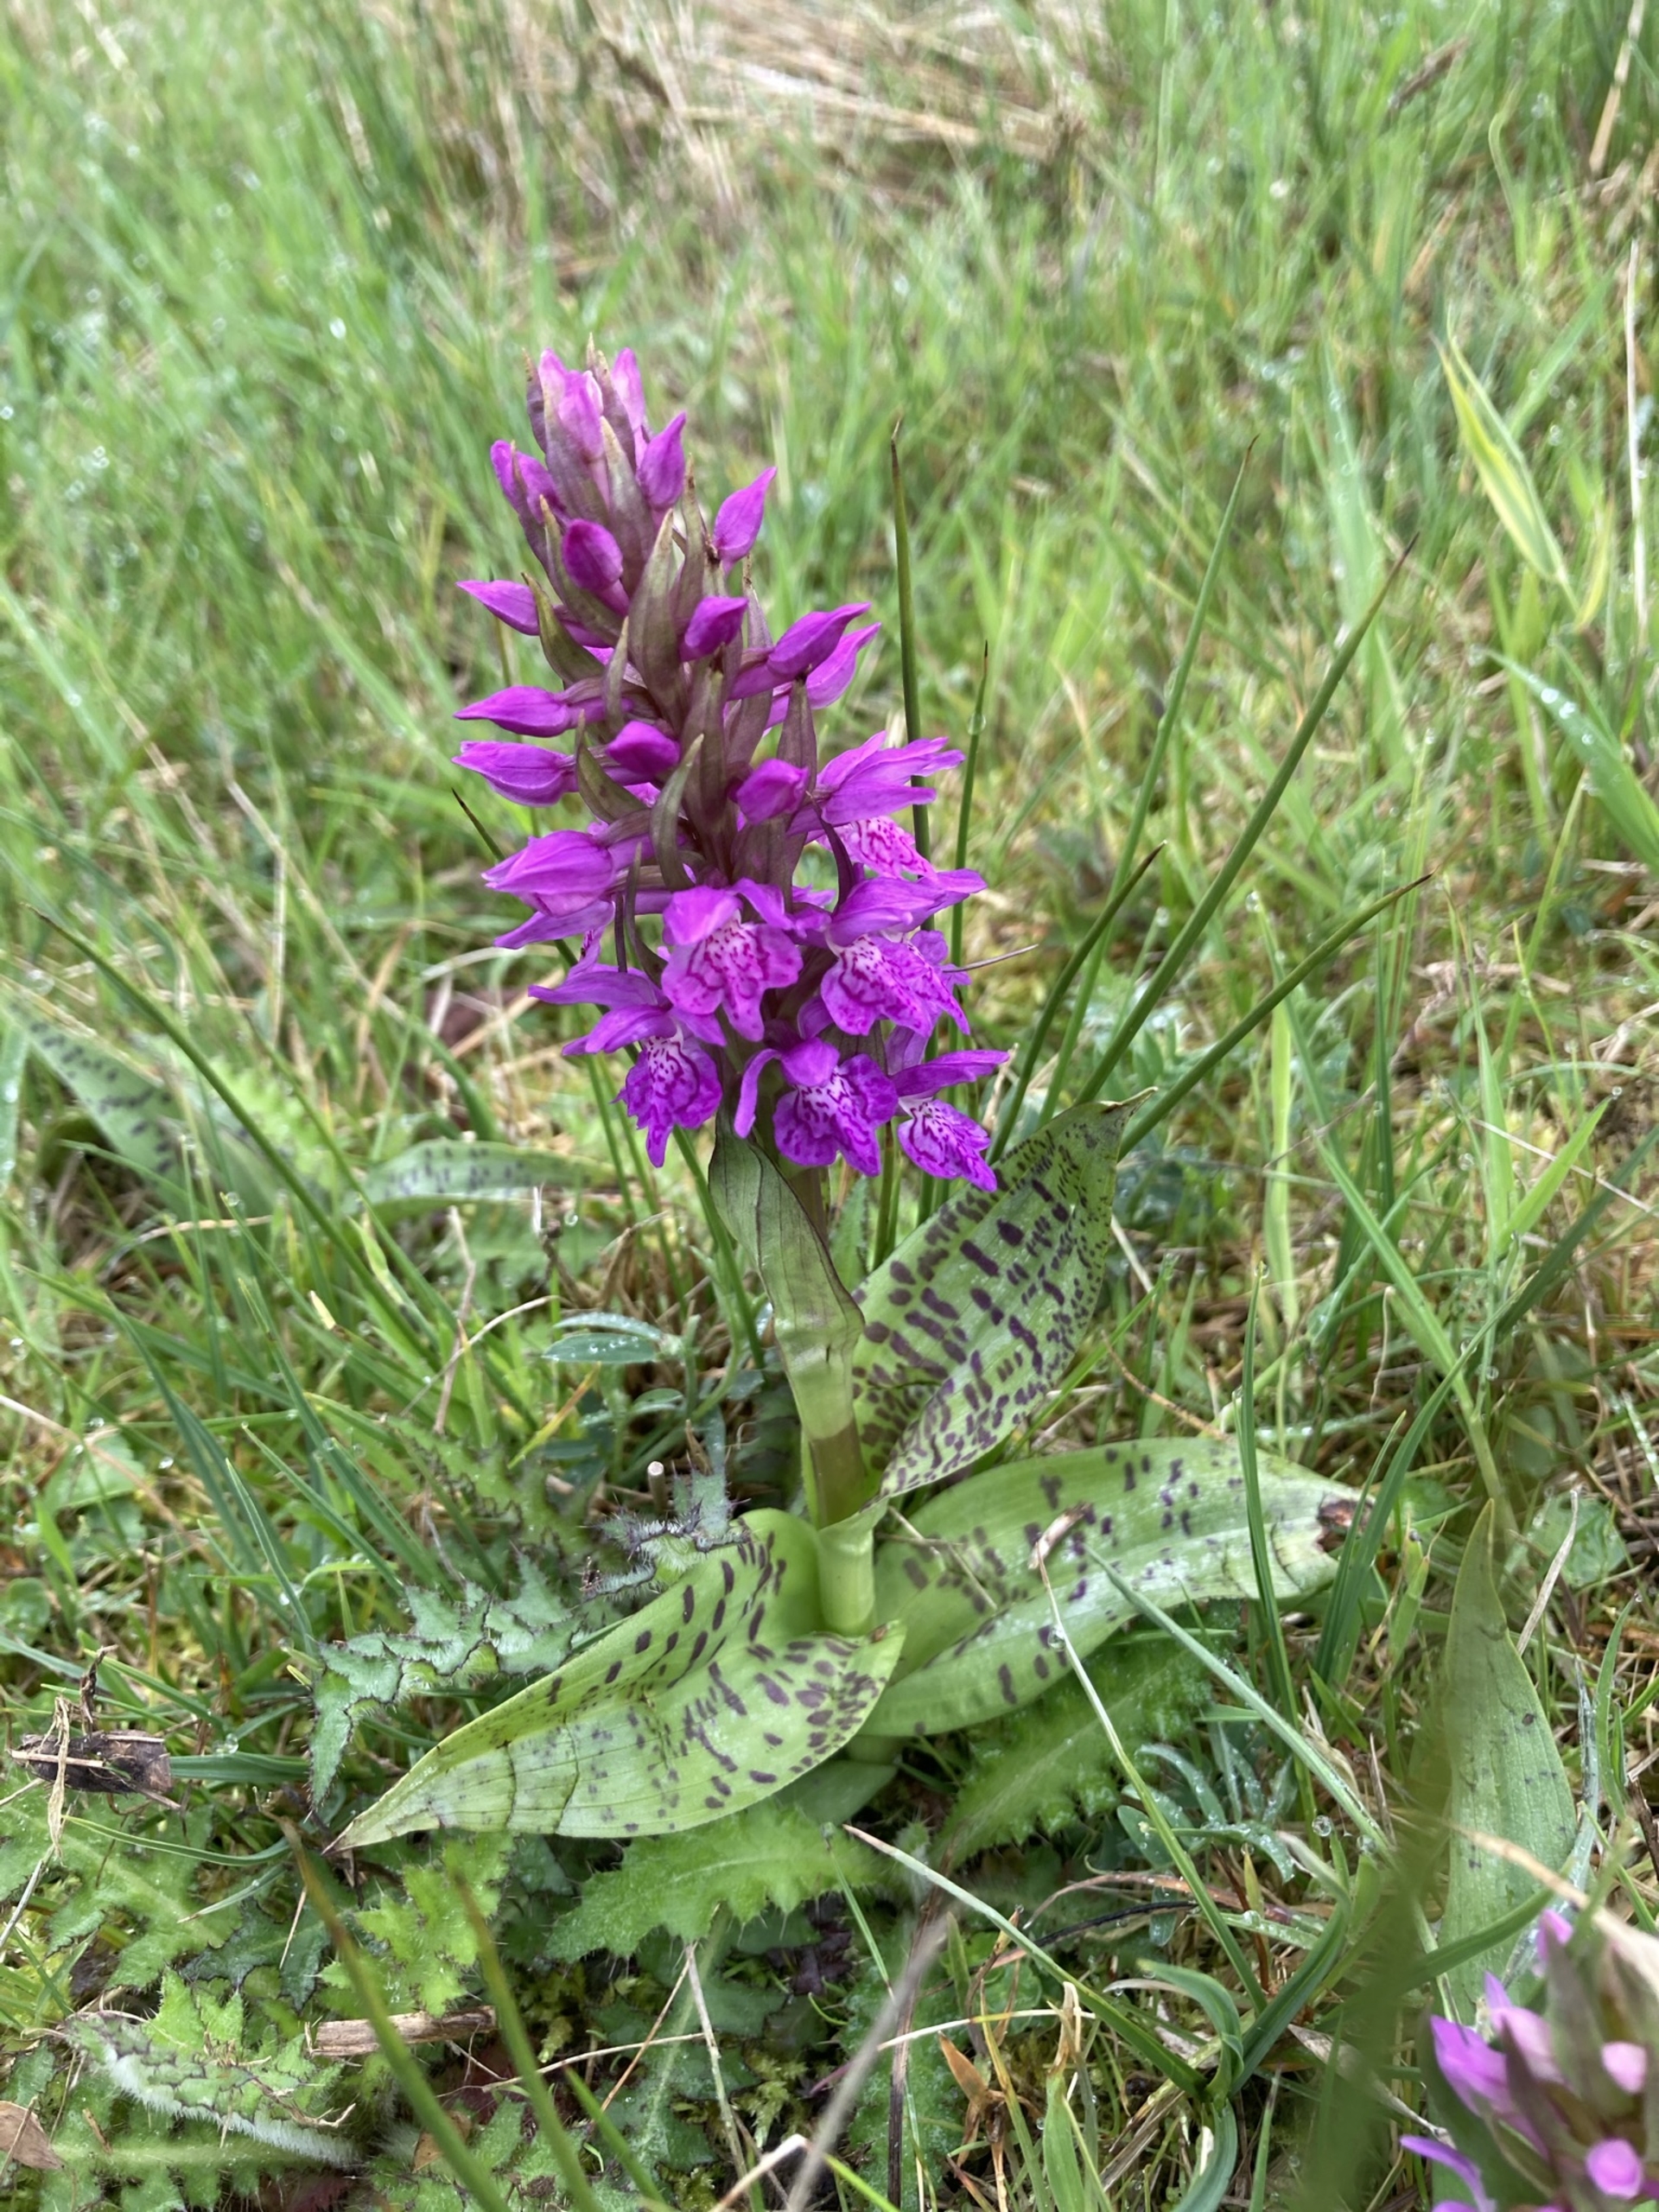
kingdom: Plantae
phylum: Tracheophyta
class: Liliopsida
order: Asparagales
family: Orchidaceae
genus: Dactylorhiza
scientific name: Dactylorhiza majalis
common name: Maj-gøgeurt
